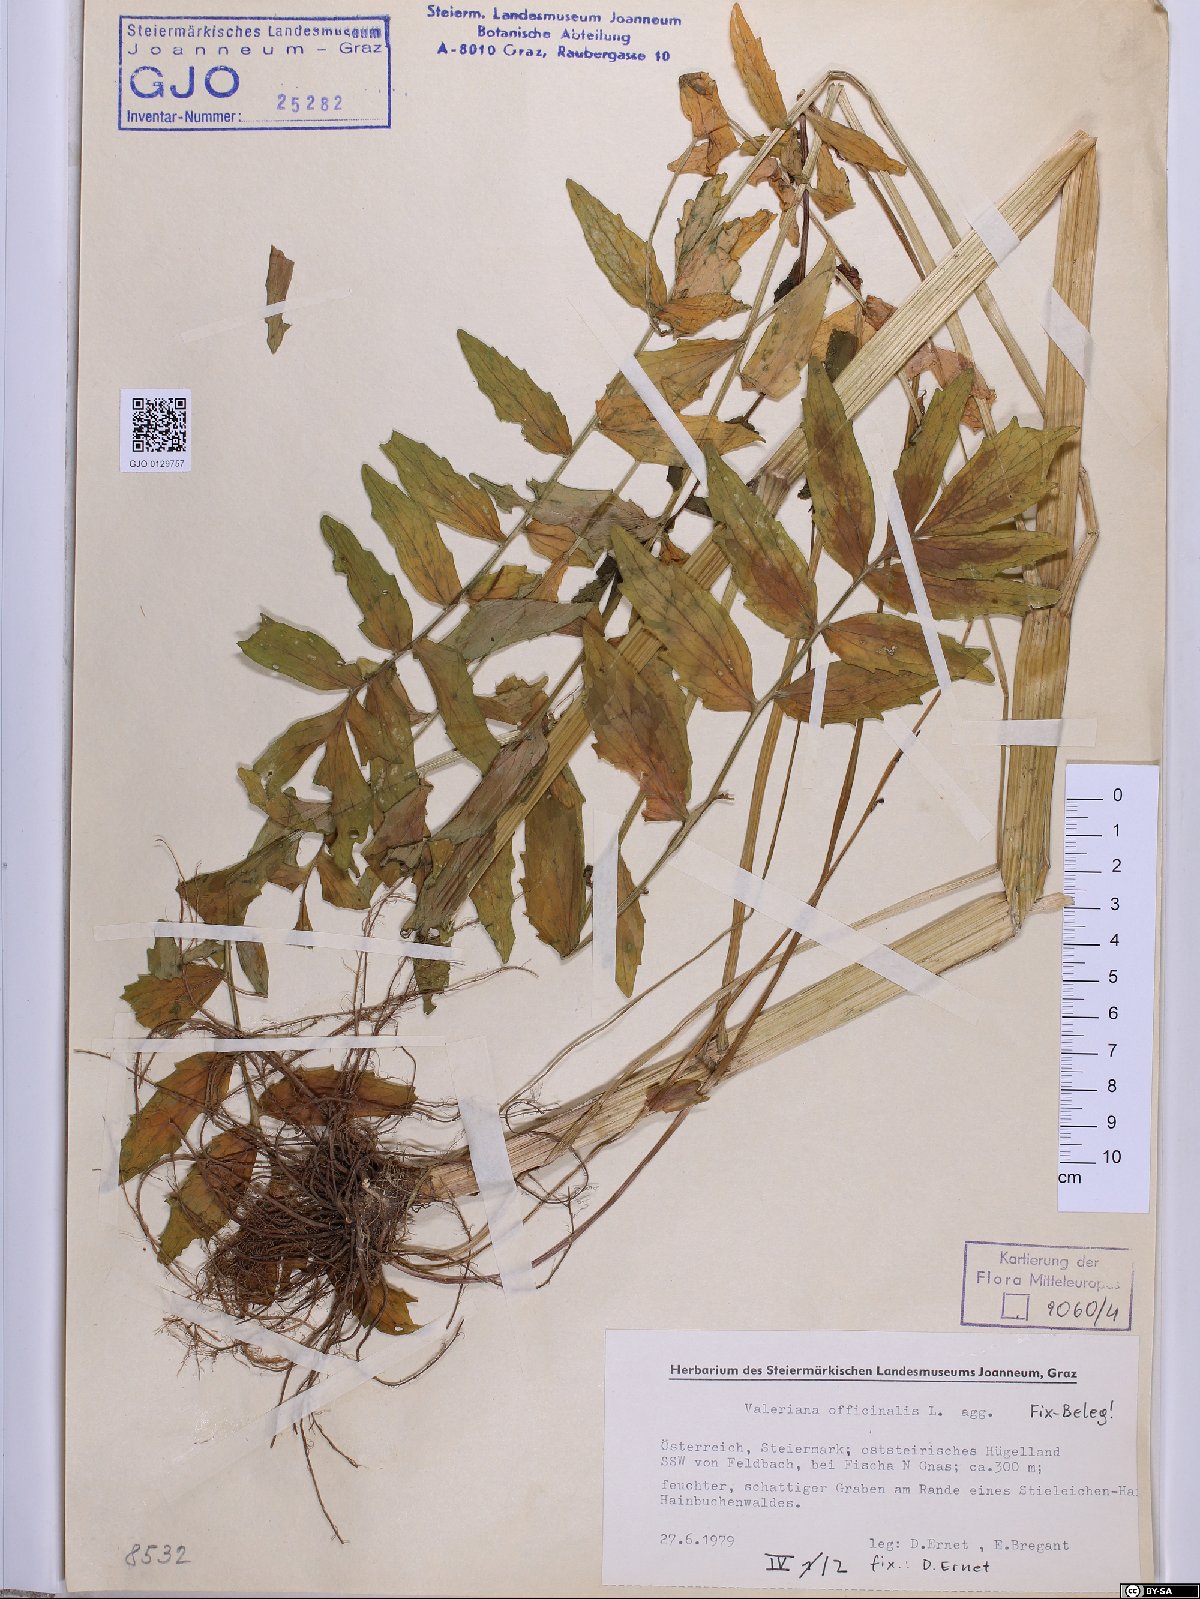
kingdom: Plantae
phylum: Tracheophyta
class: Magnoliopsida
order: Dipsacales
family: Caprifoliaceae
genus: Valeriana
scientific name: Valeriana officinalis
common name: Common valerian
